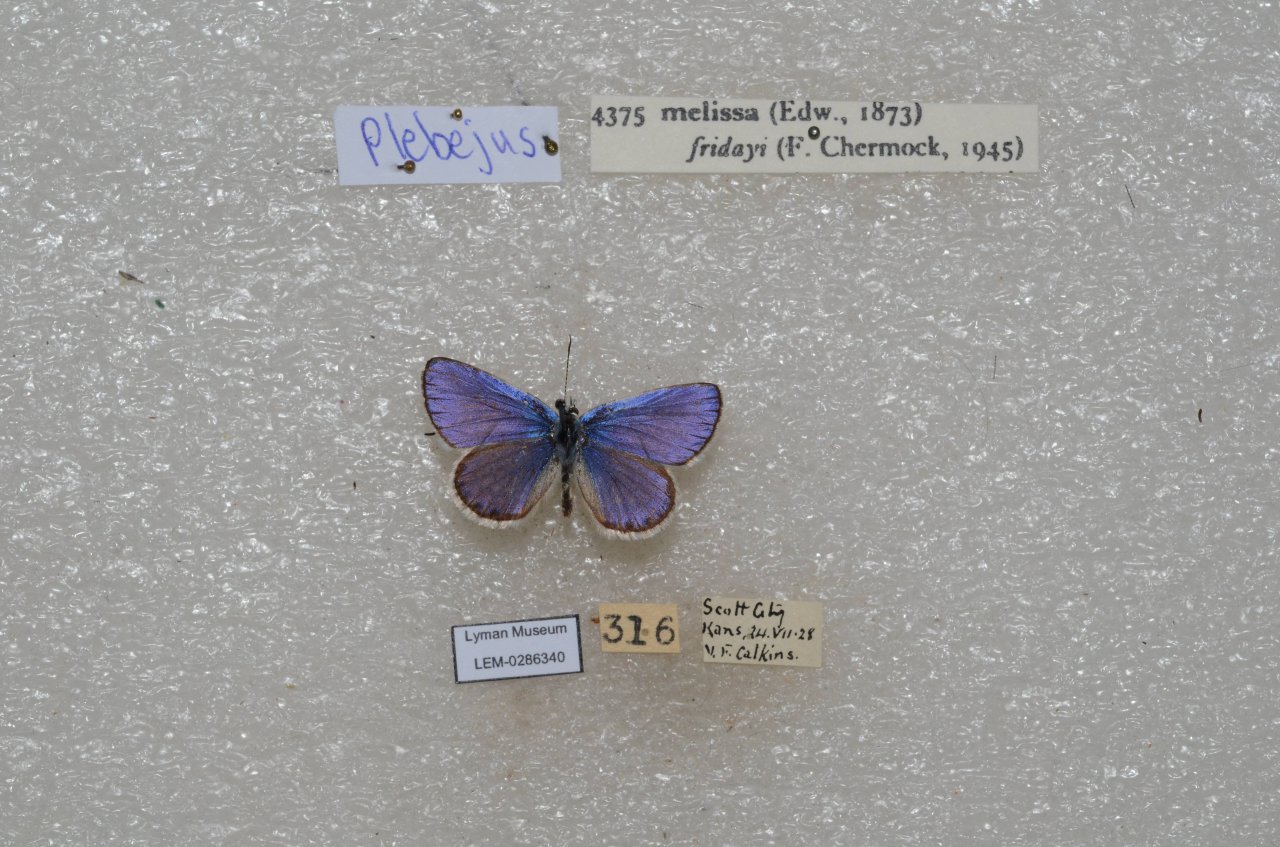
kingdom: Animalia
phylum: Arthropoda
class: Insecta
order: Lepidoptera
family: Lycaenidae
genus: Lycaeides
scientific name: Lycaeides melissa
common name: Melissa Blue
